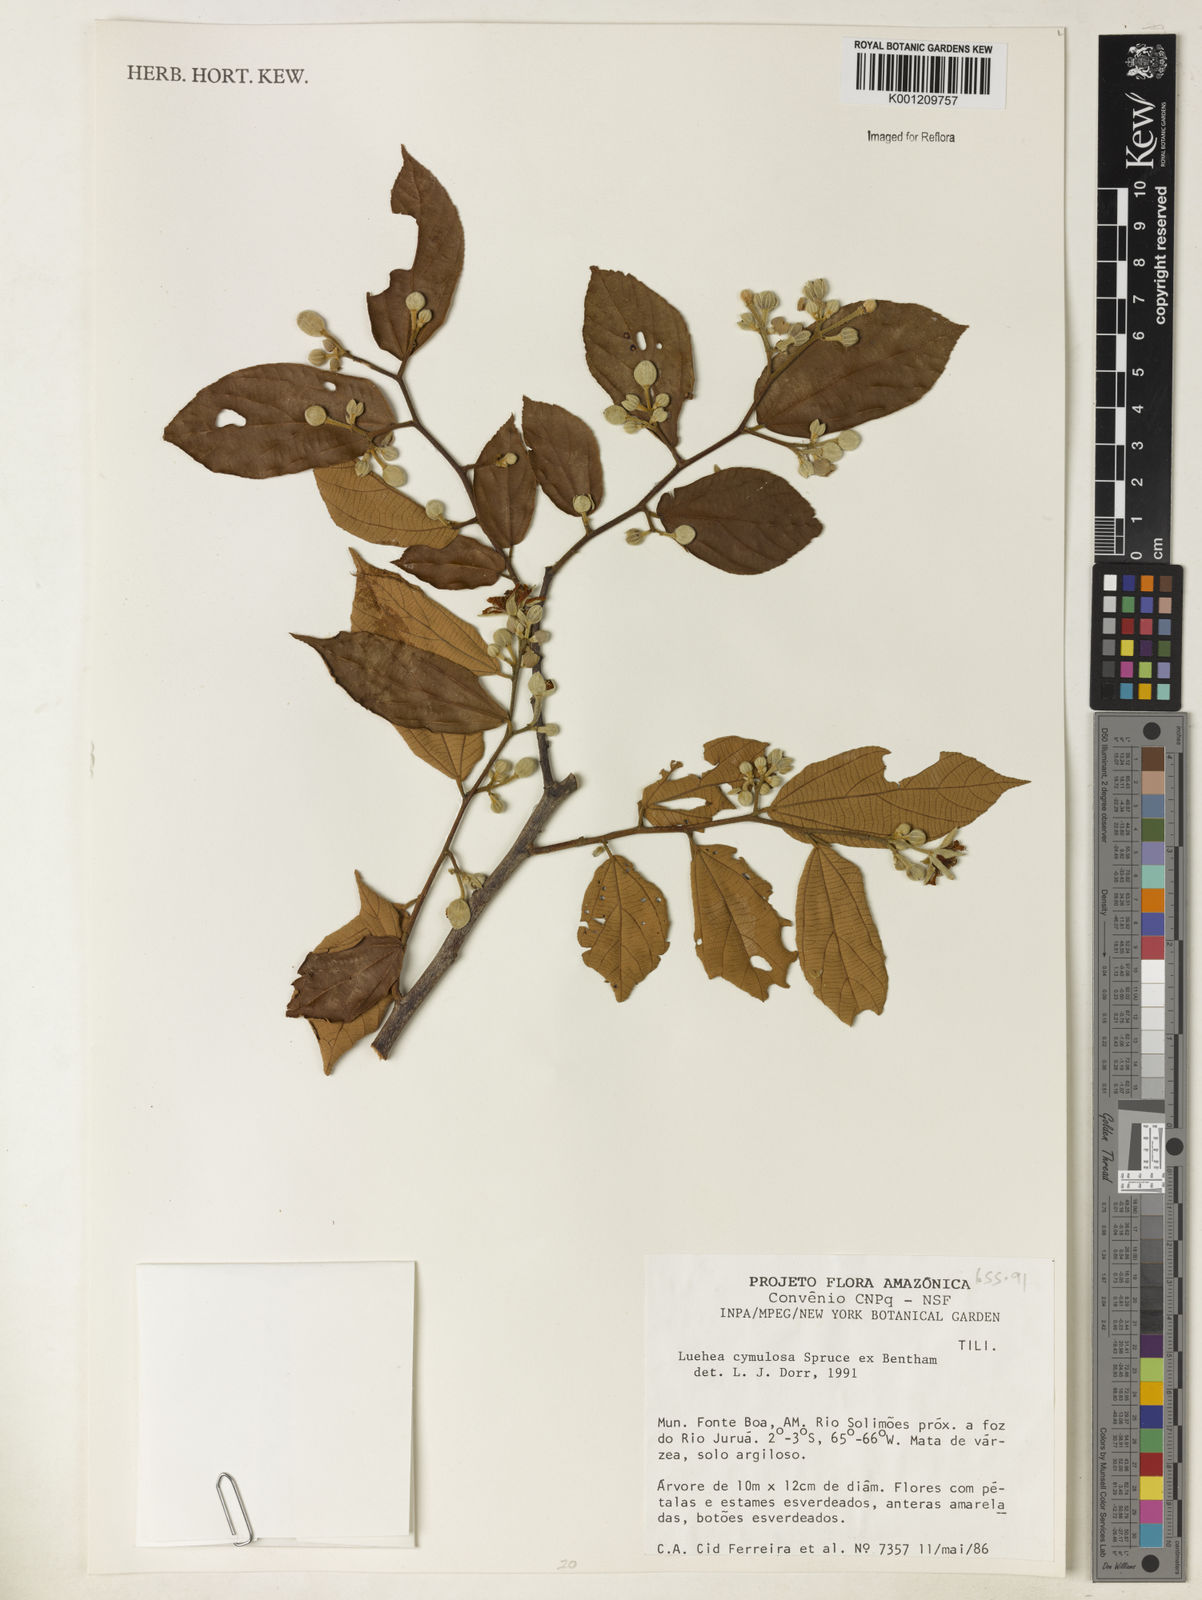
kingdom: Plantae
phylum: Tracheophyta
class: Magnoliopsida
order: Malvales
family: Malvaceae
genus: Luehea
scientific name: Luehea cymulosa
